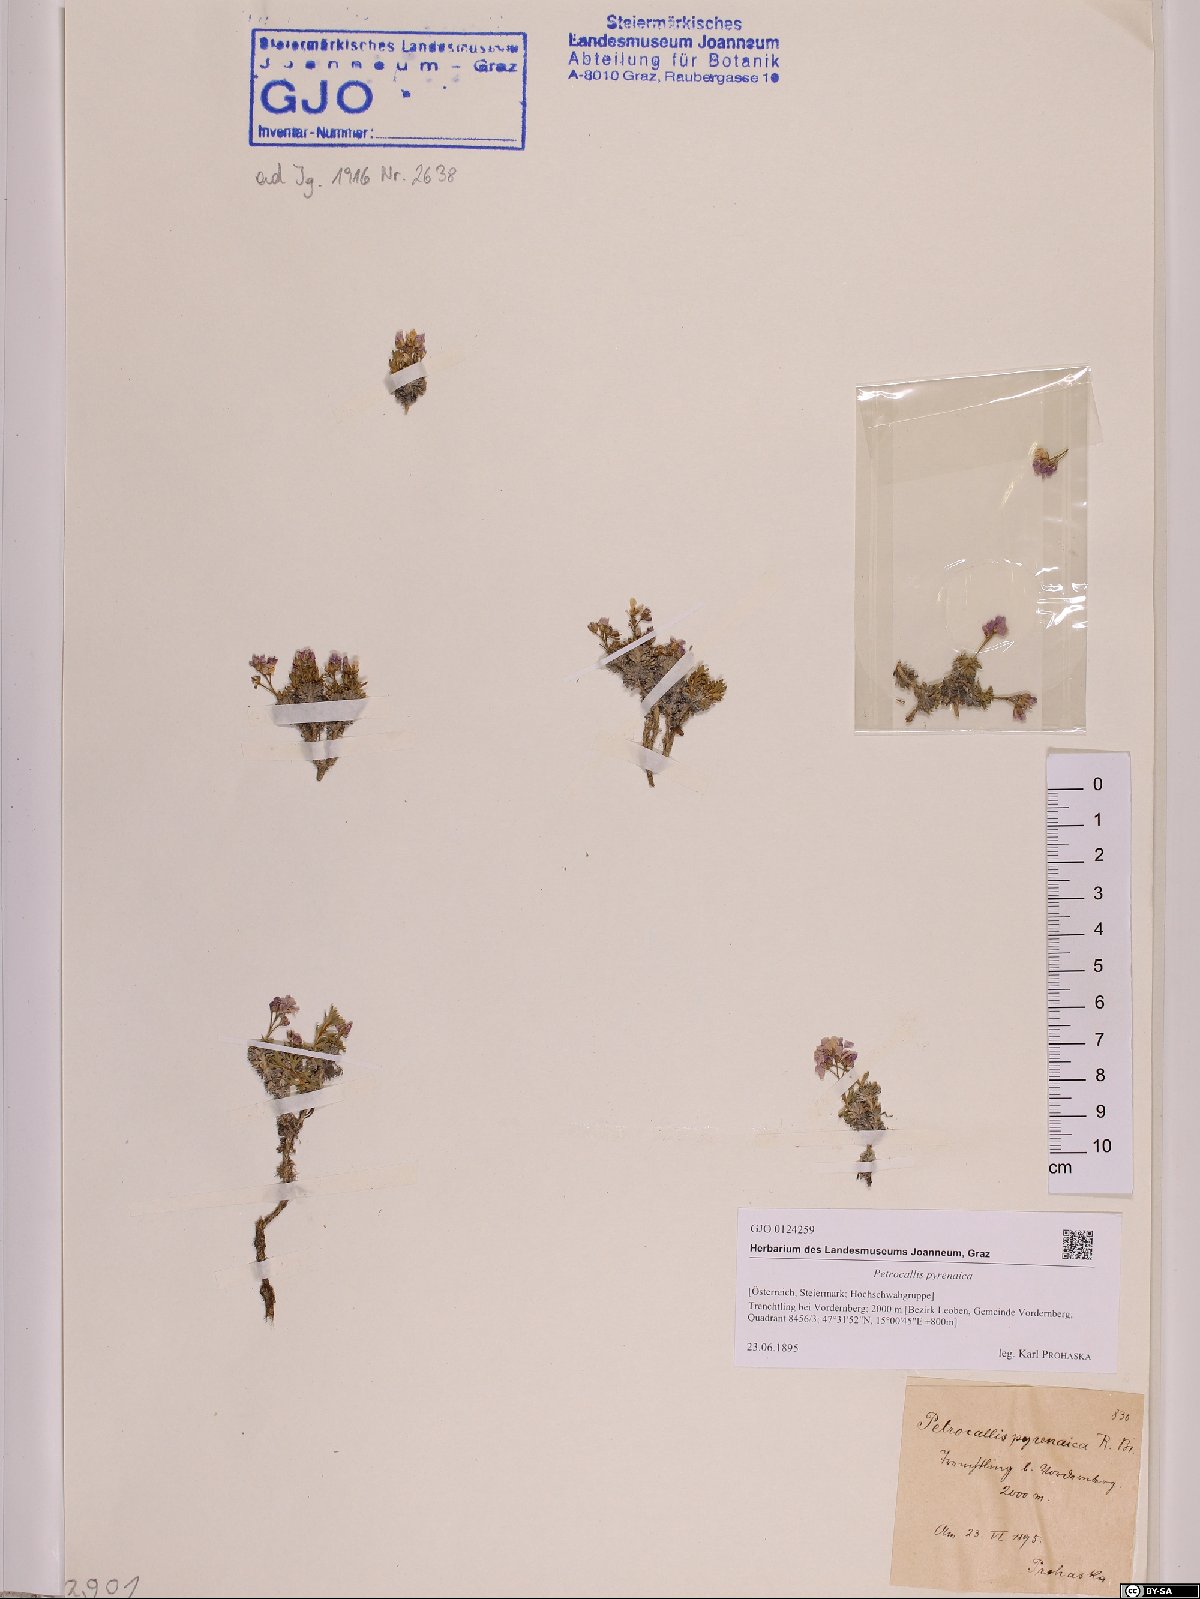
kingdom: Plantae
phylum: Tracheophyta
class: Magnoliopsida
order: Brassicales
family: Brassicaceae
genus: Petrocallis
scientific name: Petrocallis pyrenaica
